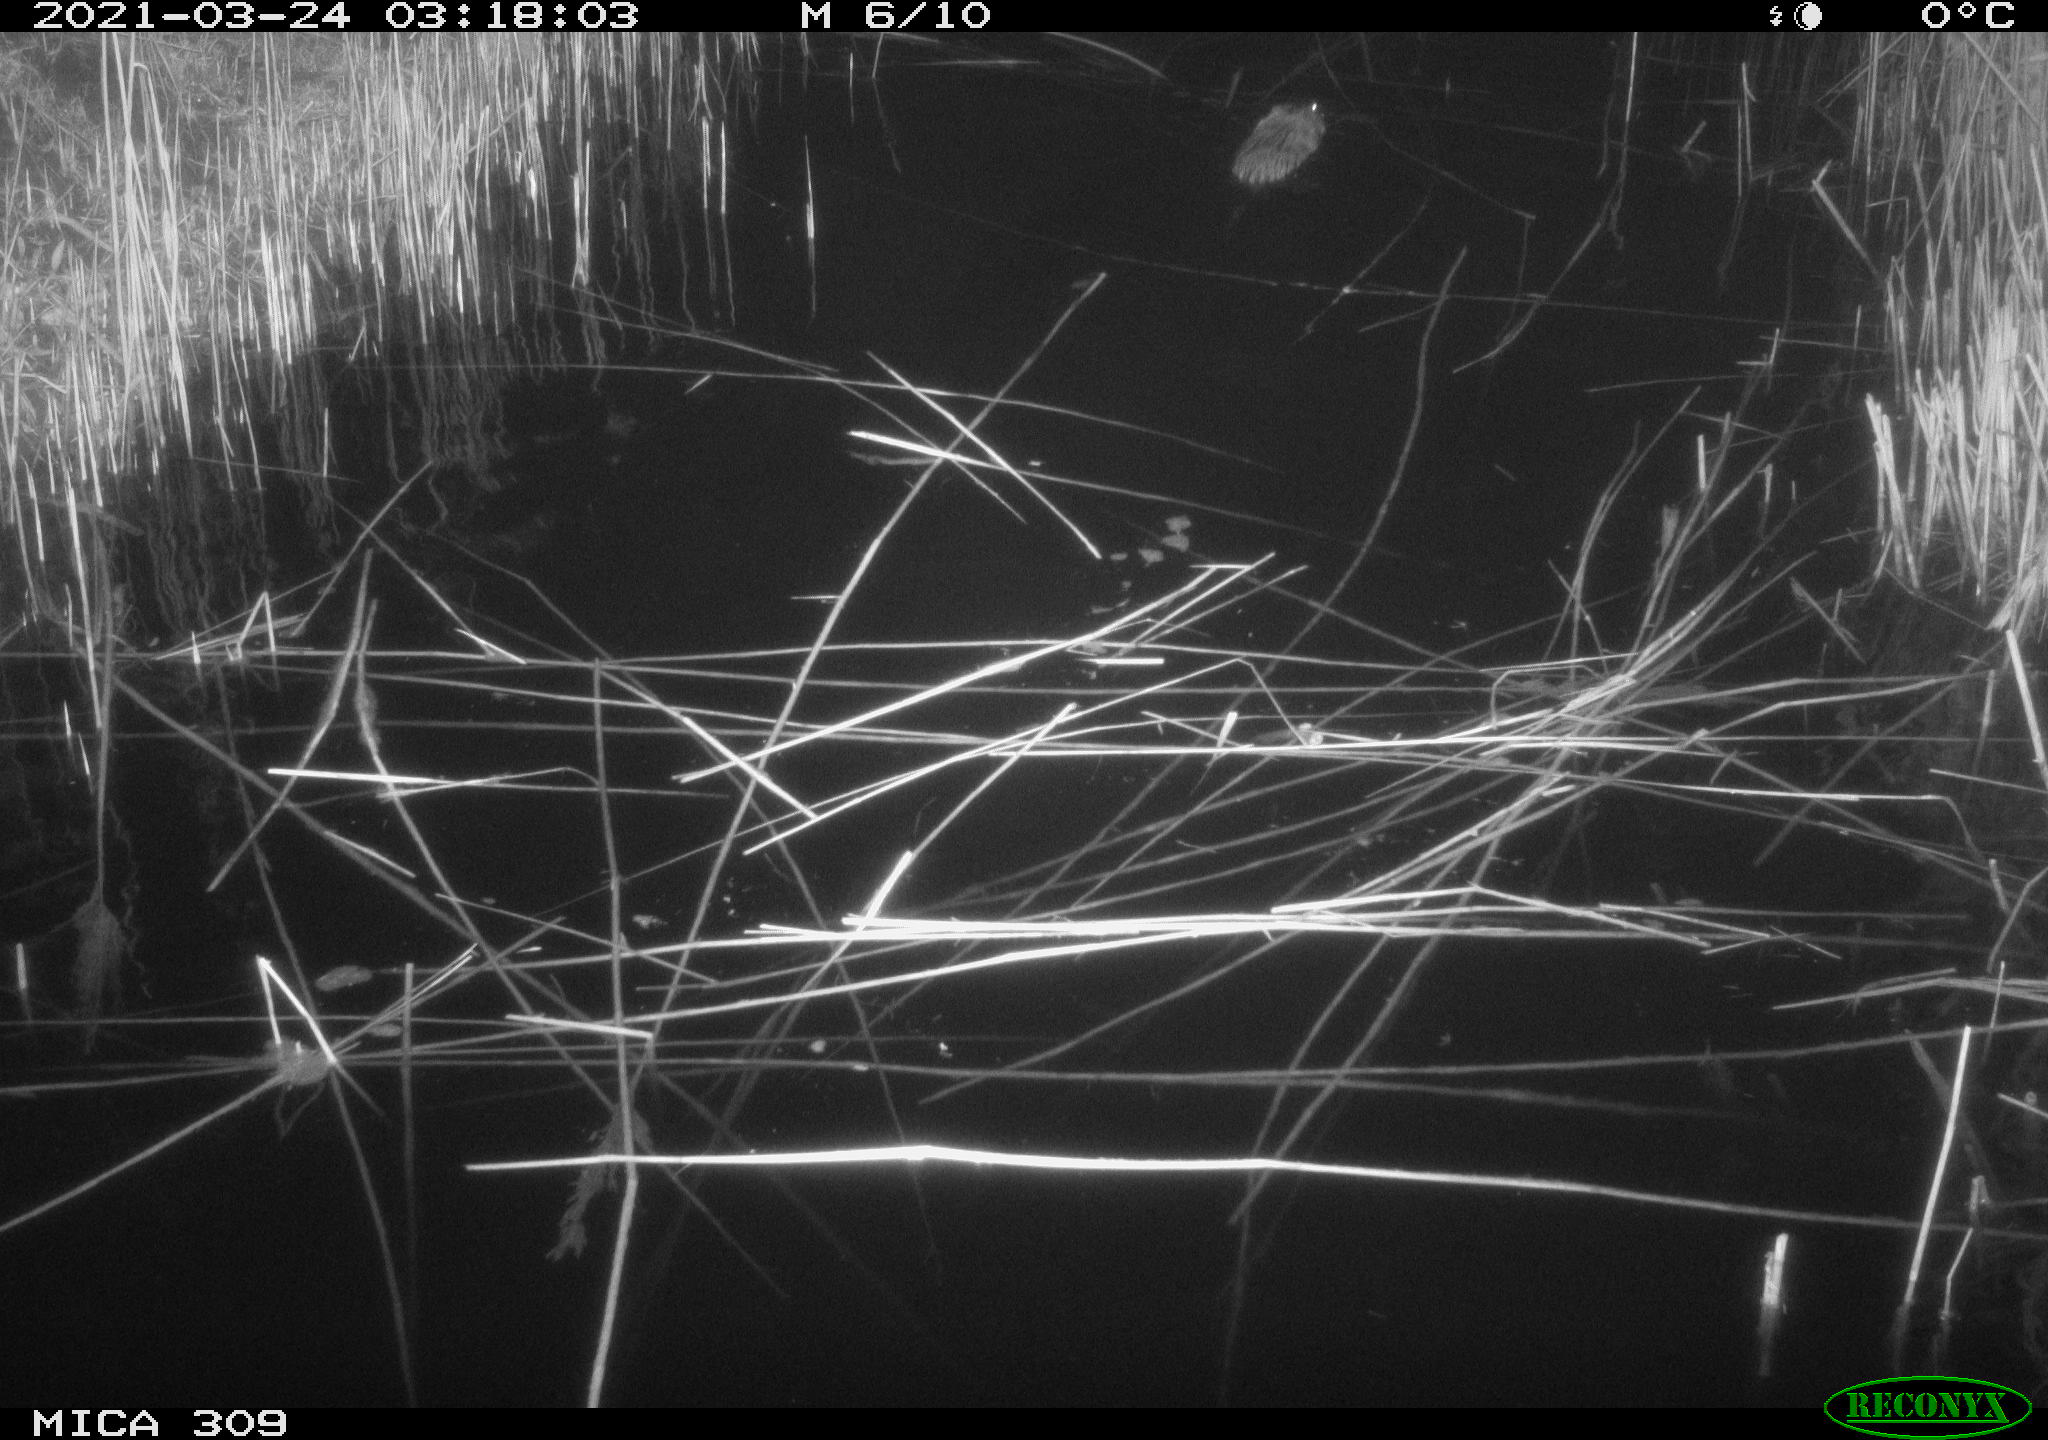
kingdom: Animalia
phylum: Chordata
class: Mammalia
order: Rodentia
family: Cricetidae
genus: Ondatra
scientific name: Ondatra zibethicus
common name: Muskrat
